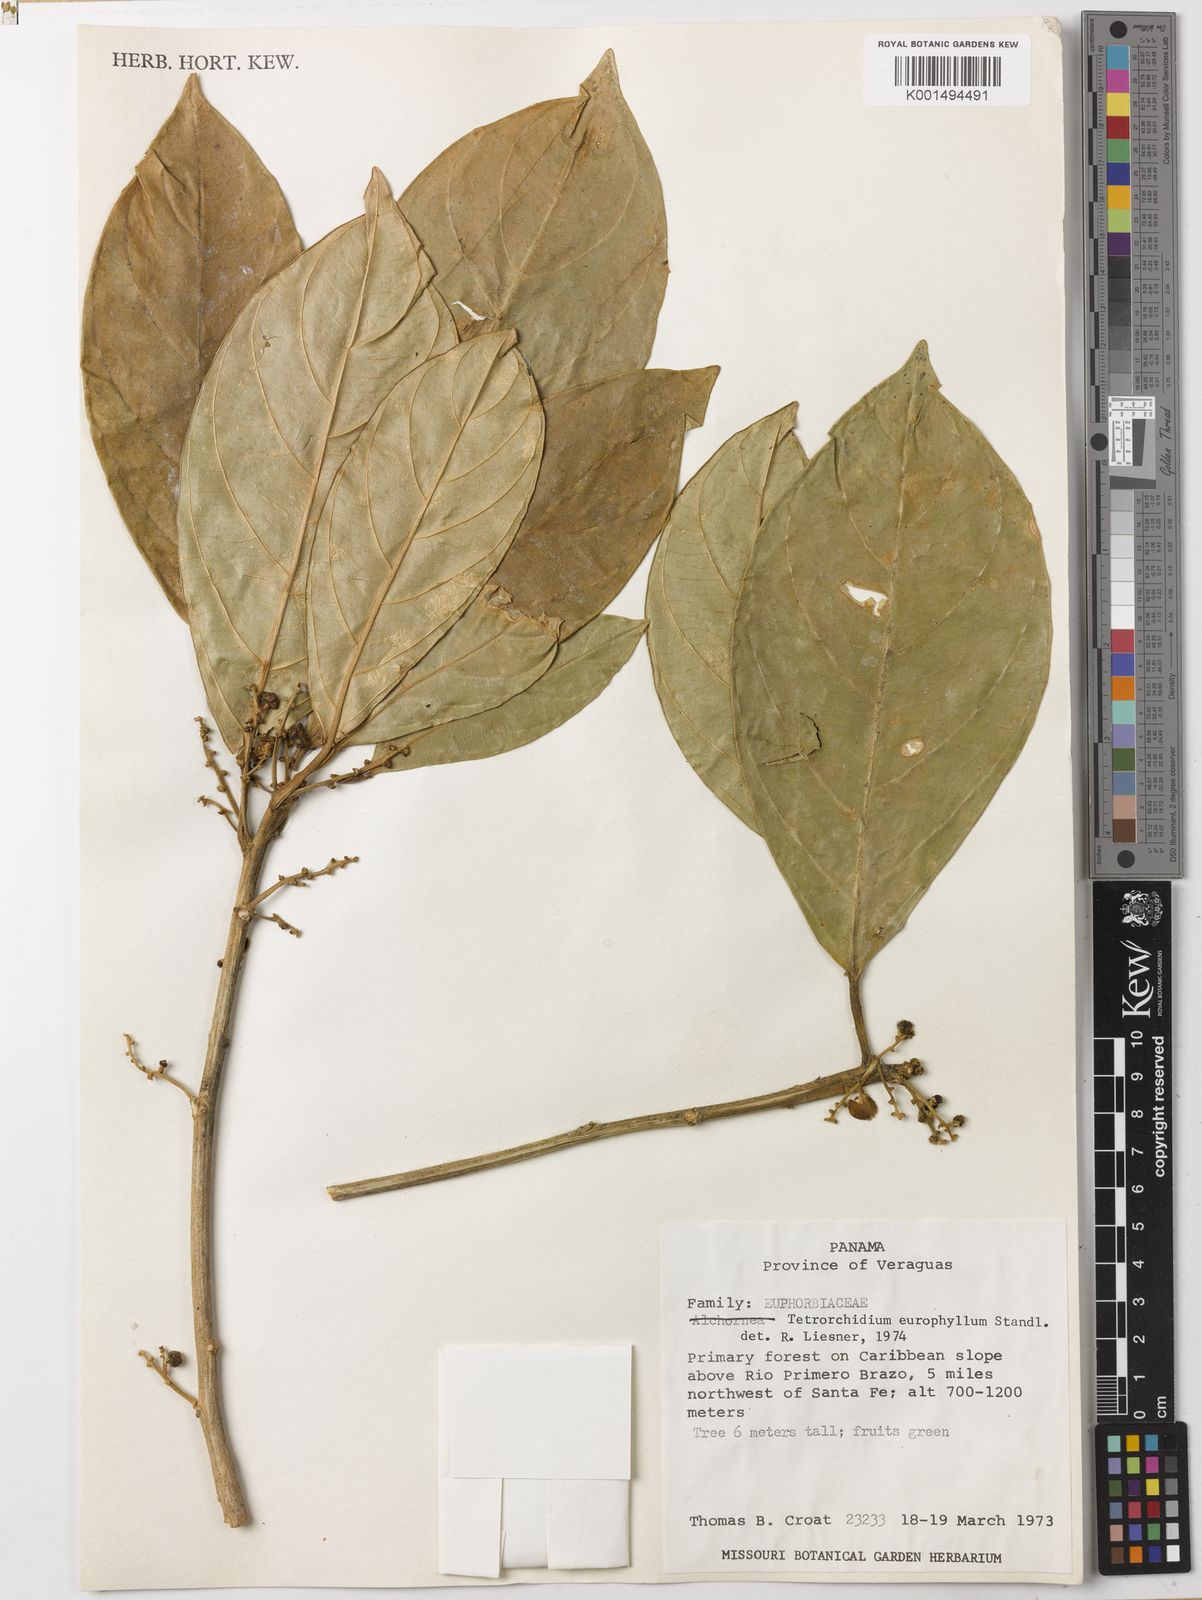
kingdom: Plantae
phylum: Tracheophyta
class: Magnoliopsida
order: Malpighiales
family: Euphorbiaceae
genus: Tetrorchidium
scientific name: Tetrorchidium euryphyllum
